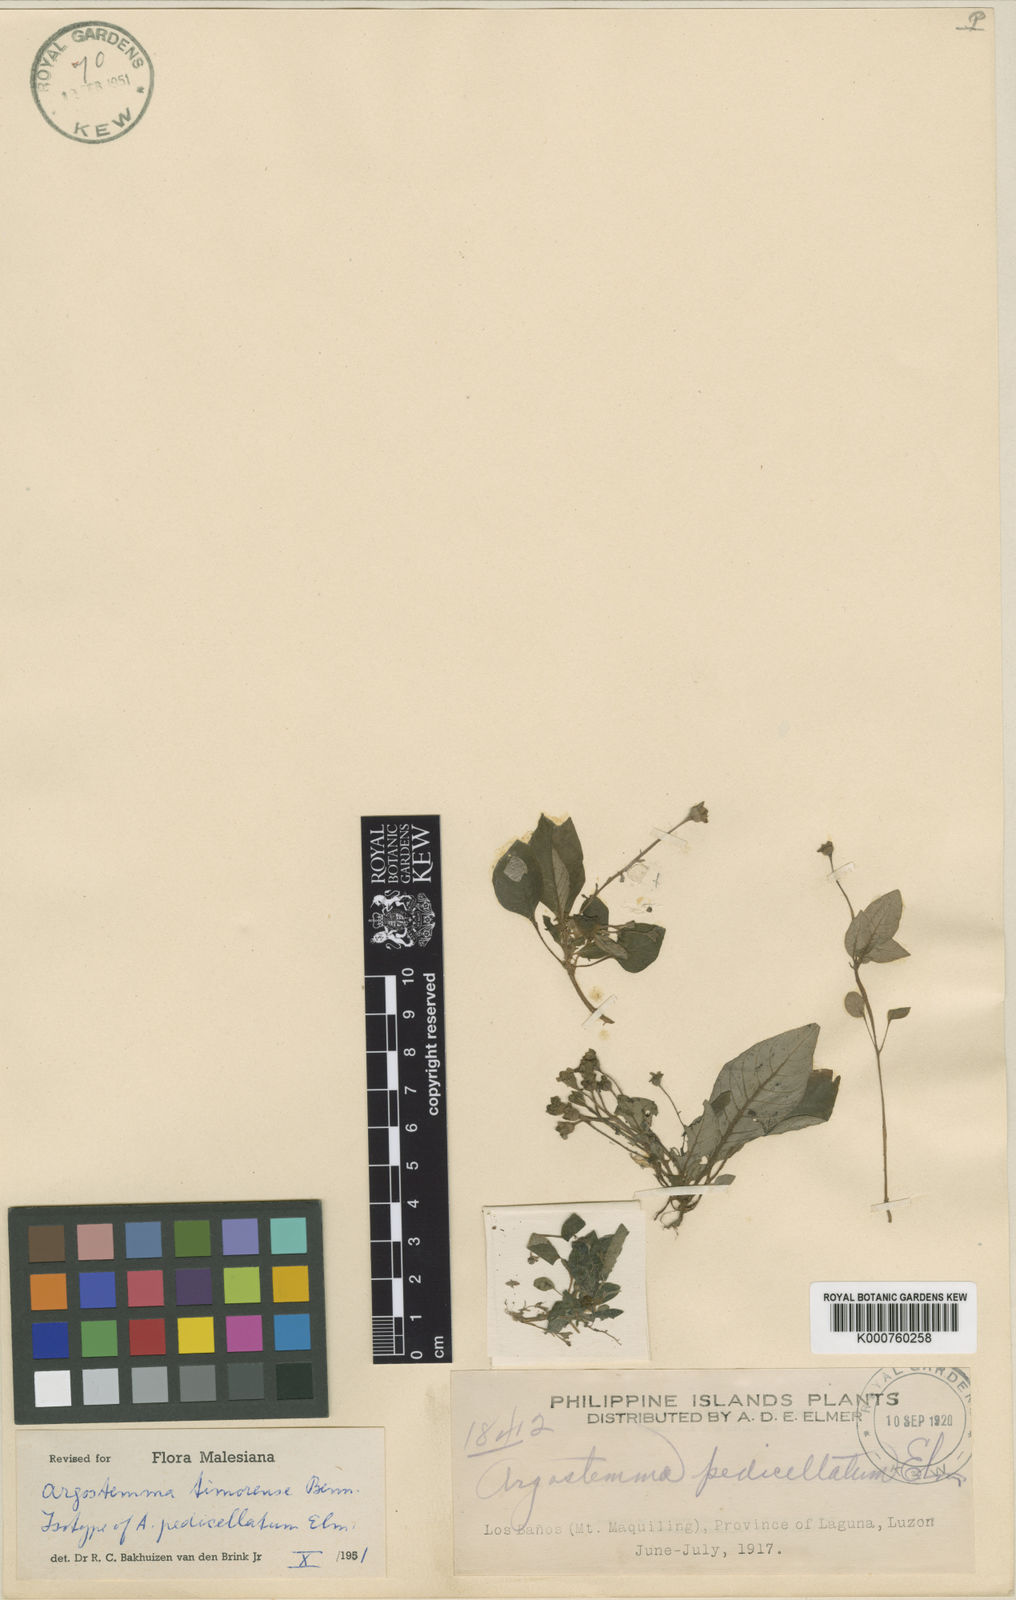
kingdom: Plantae
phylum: Tracheophyta
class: Magnoliopsida
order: Gentianales
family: Rubiaceae
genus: Argostemma
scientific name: Argostemma timorense
